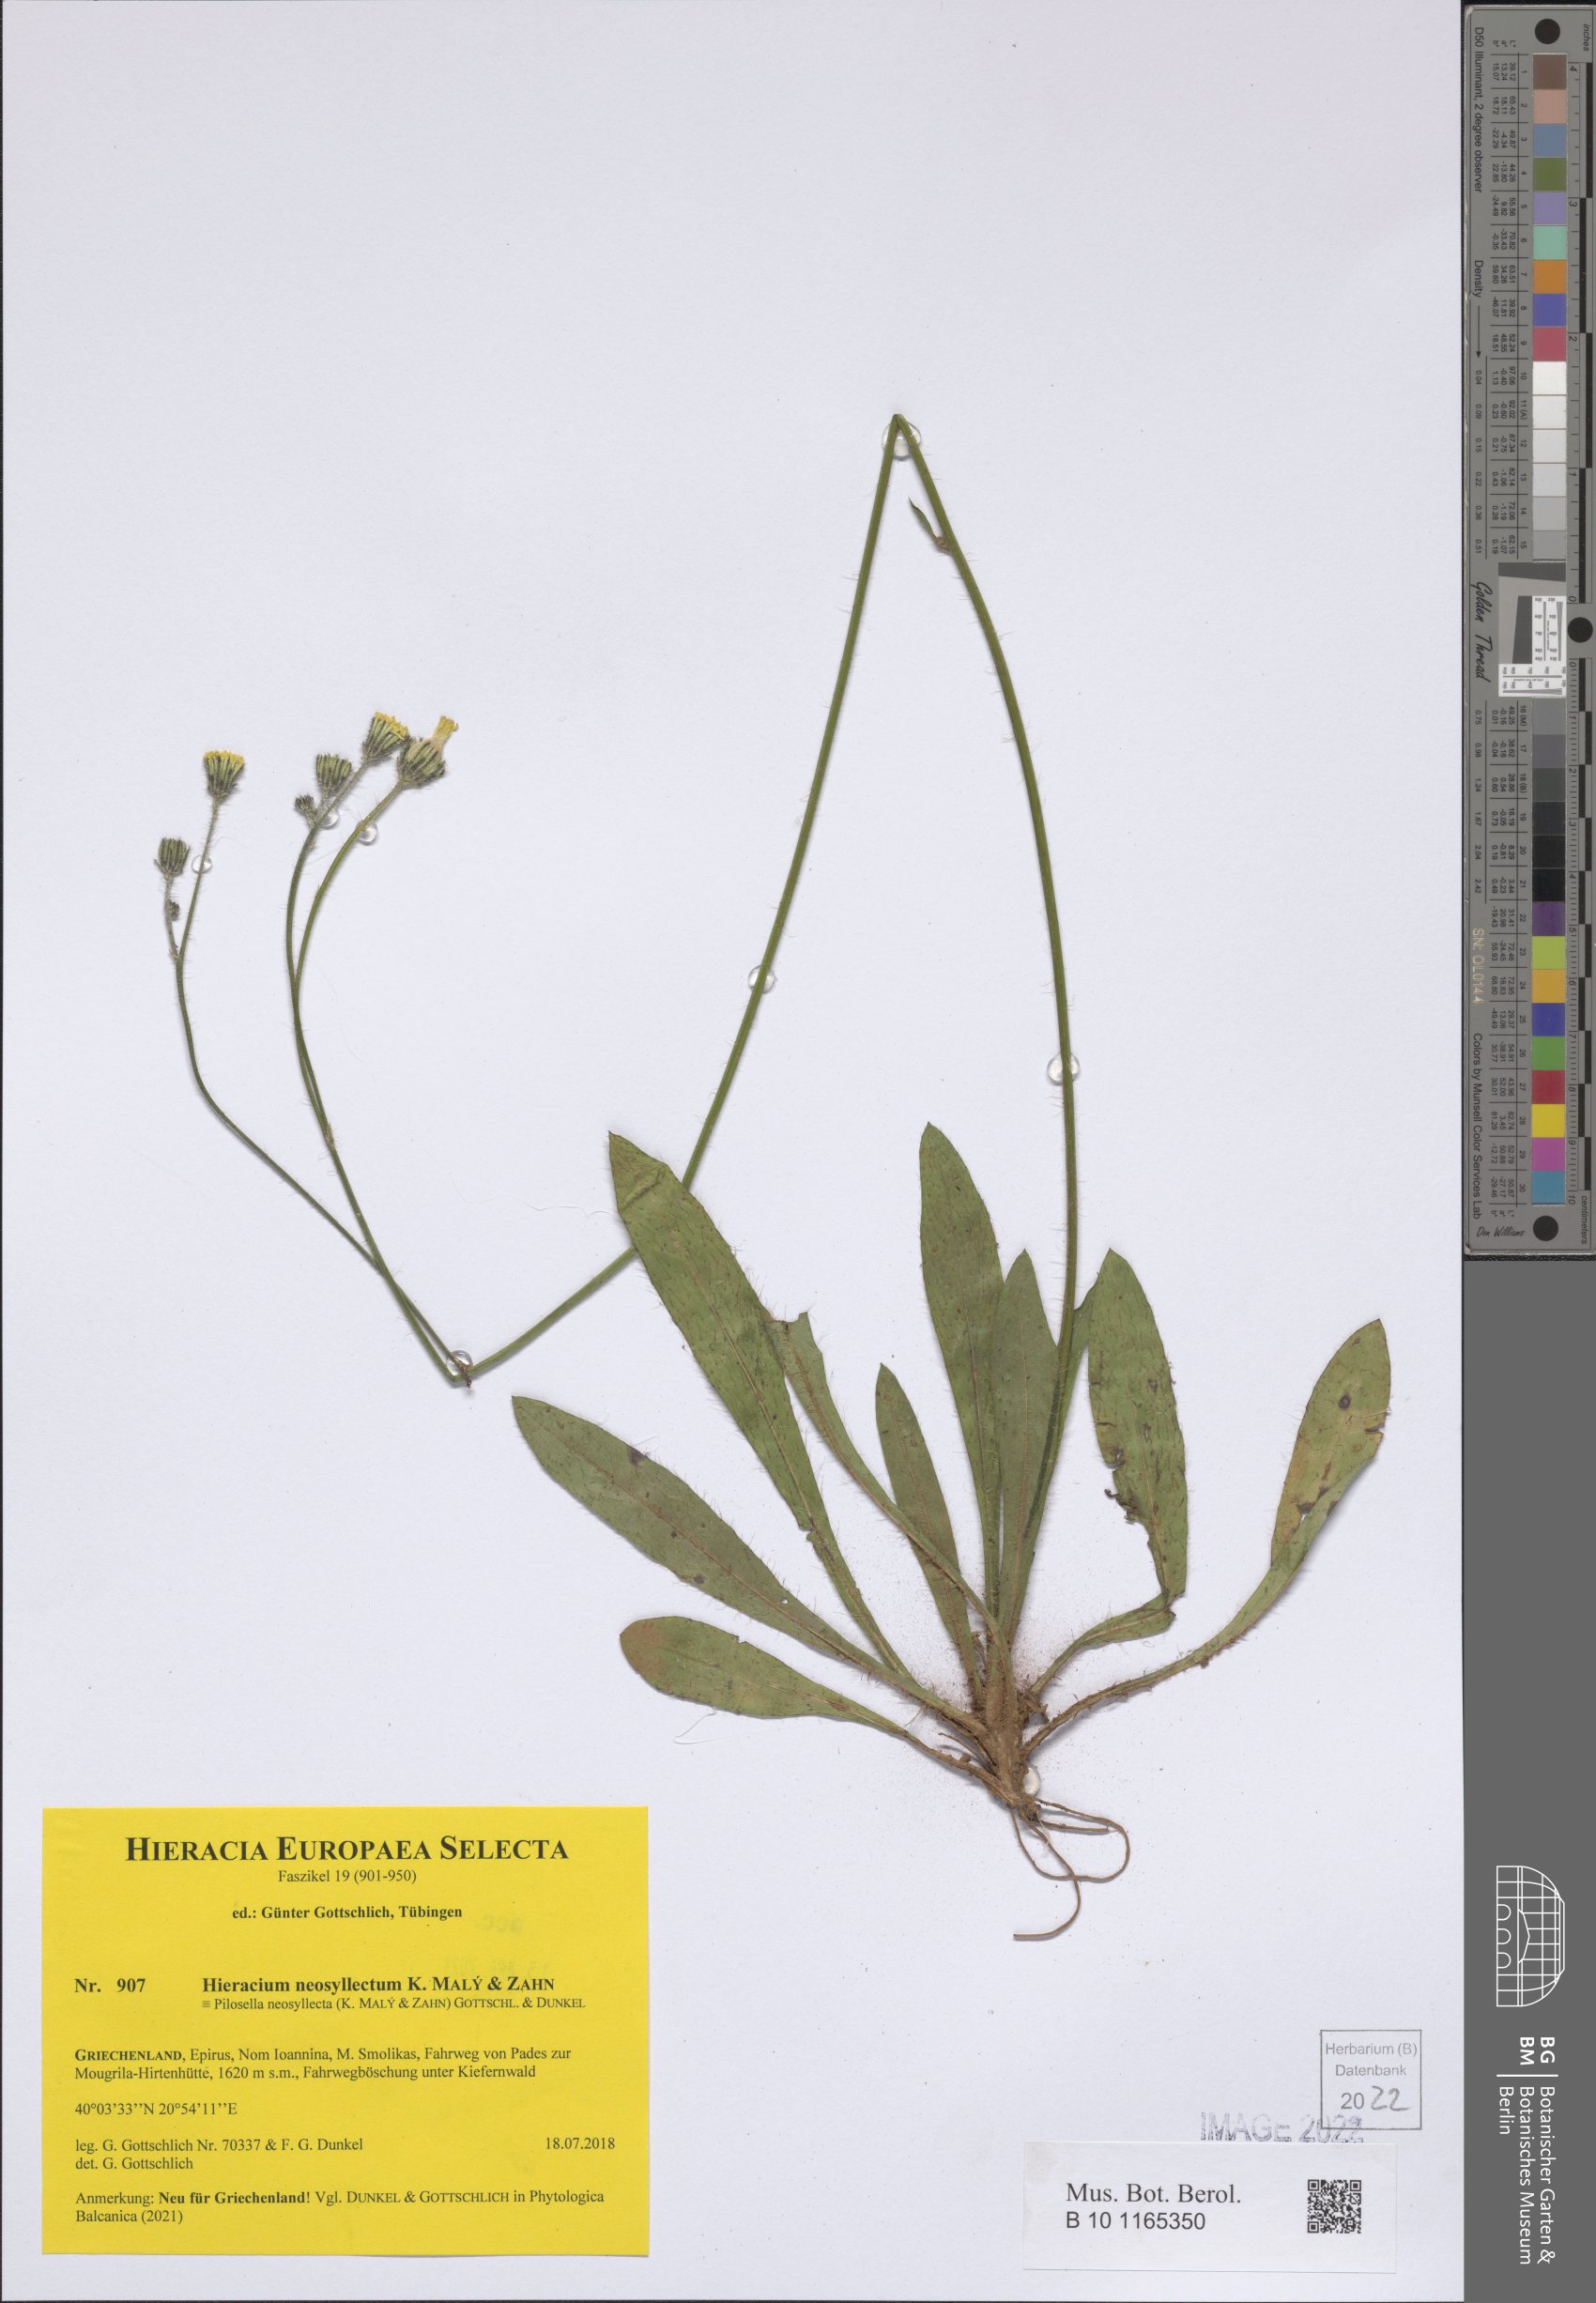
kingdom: Plantae
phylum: Tracheophyta
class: Magnoliopsida
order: Asterales
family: Asteraceae
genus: Pilosella
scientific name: Pilosella neosyllecta
